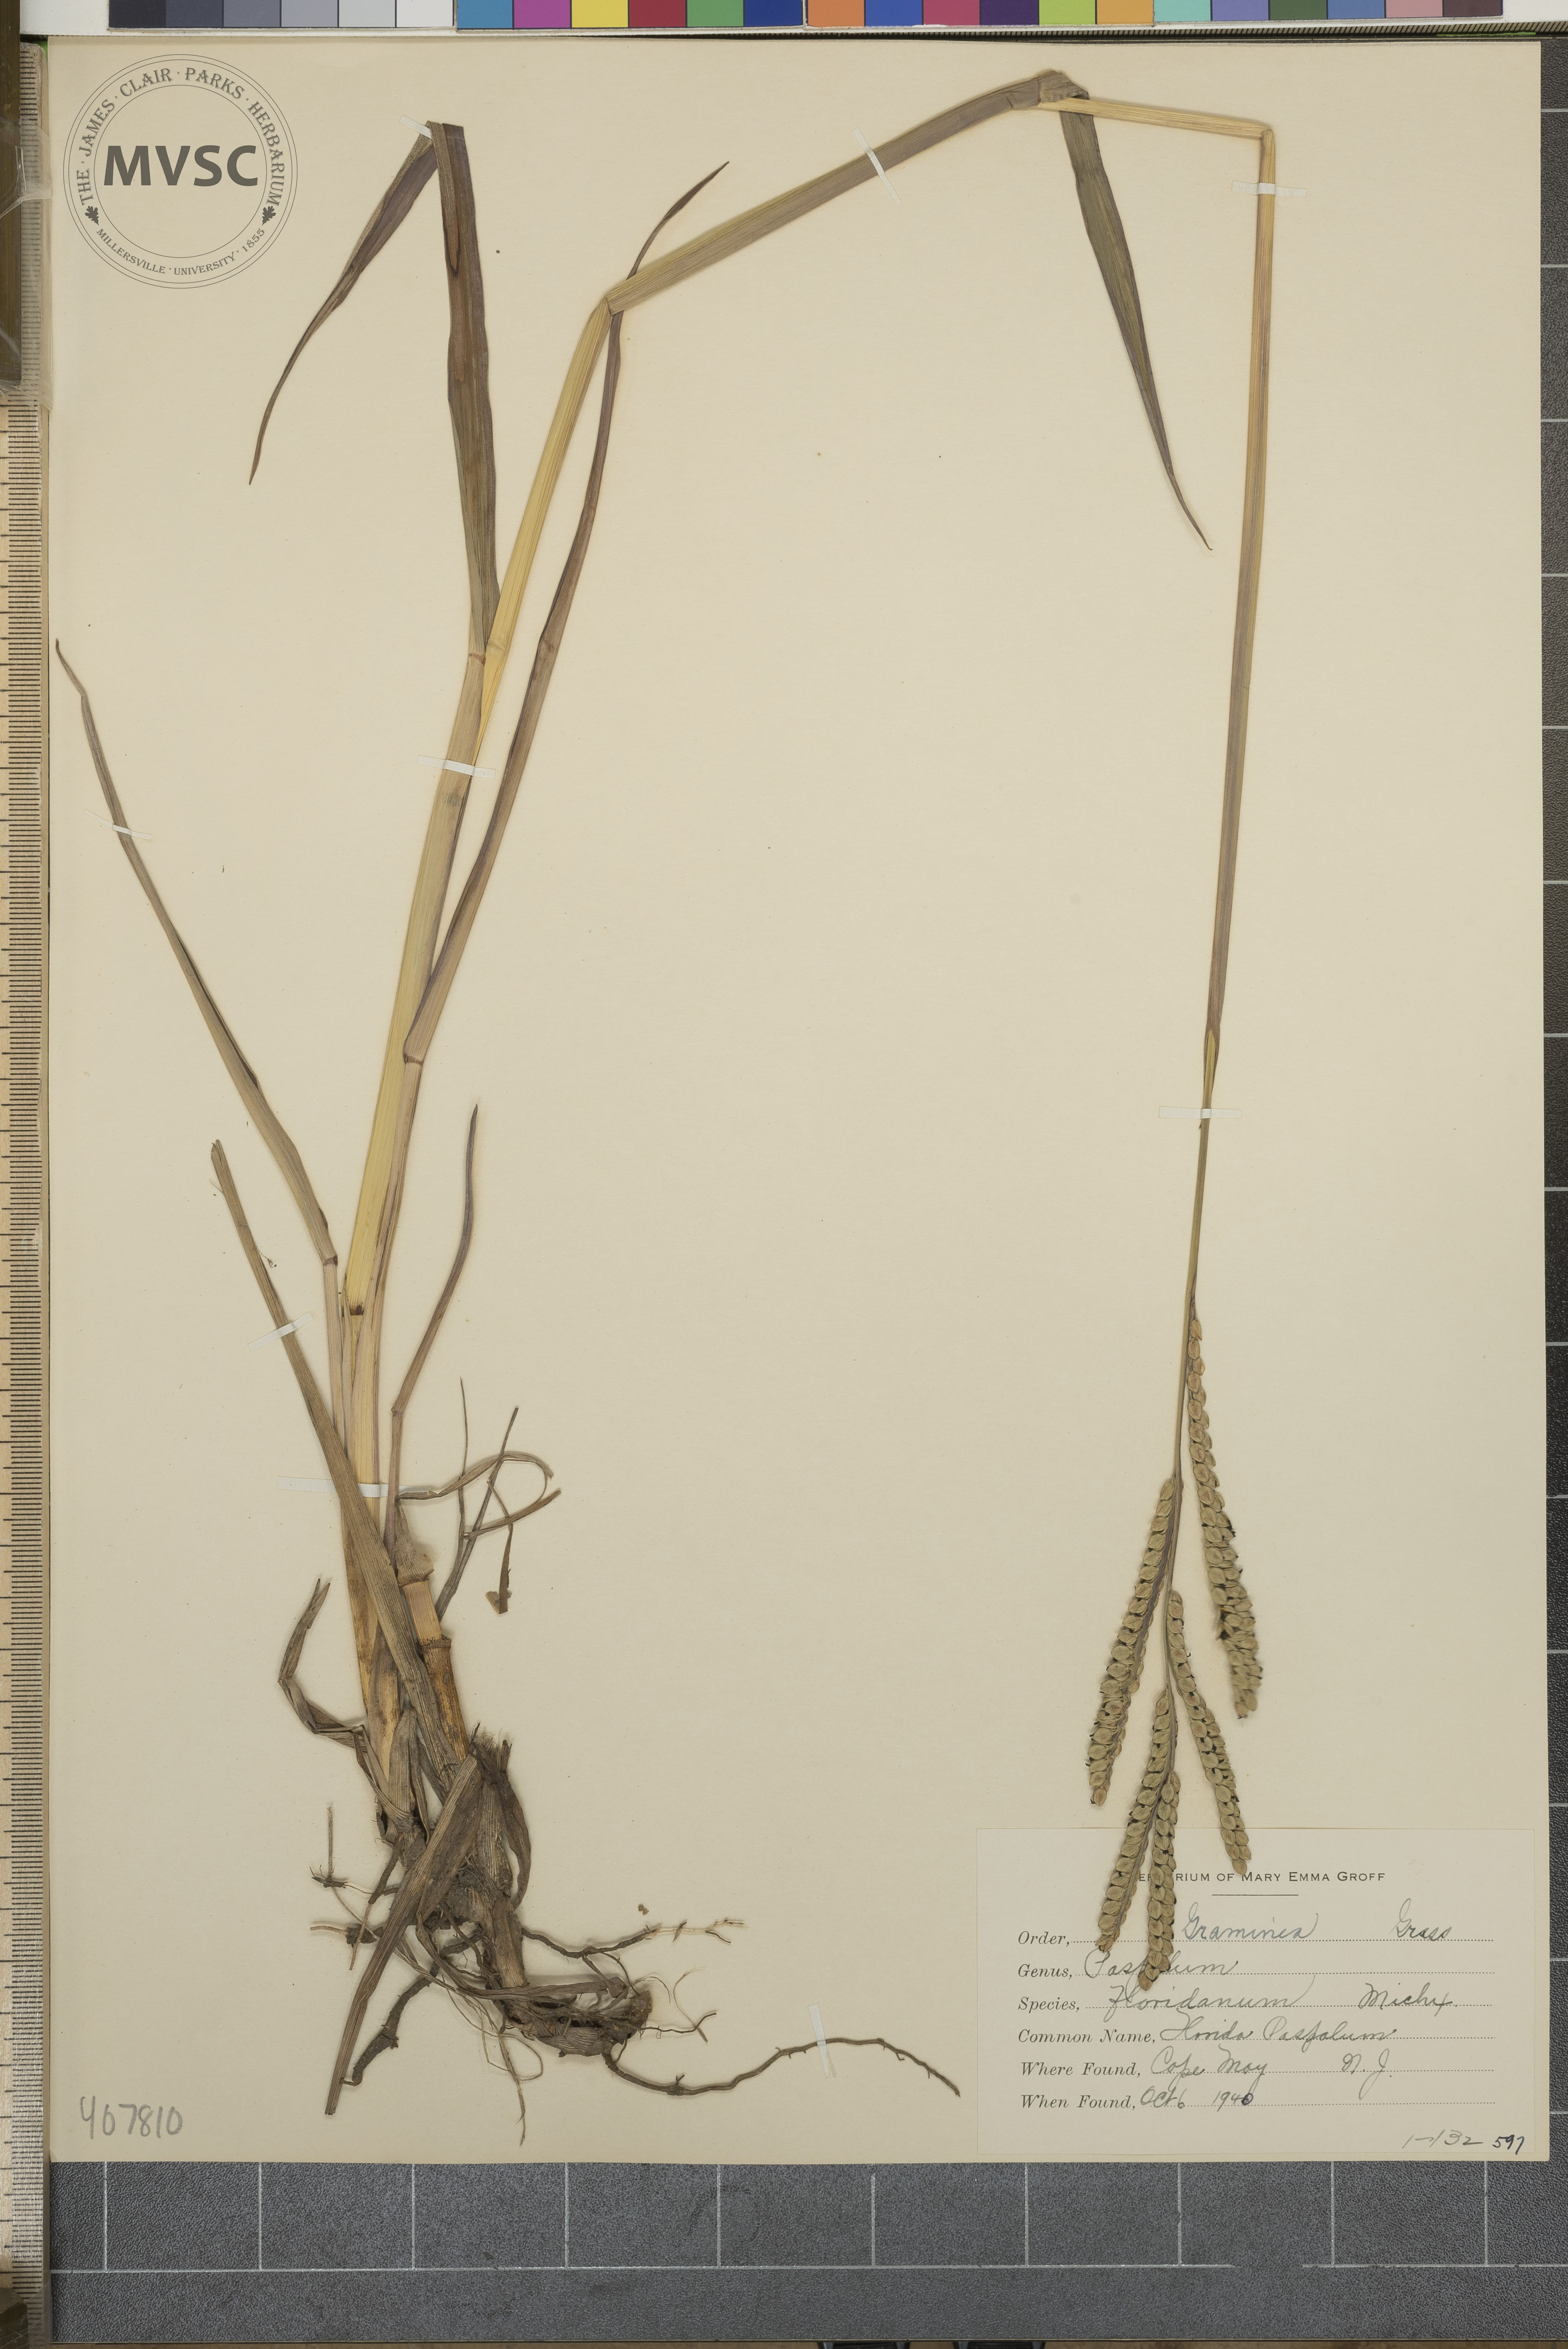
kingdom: Plantae
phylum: Tracheophyta
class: Liliopsida
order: Poales
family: Poaceae
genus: Paspalum
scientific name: Paspalum floridanum
